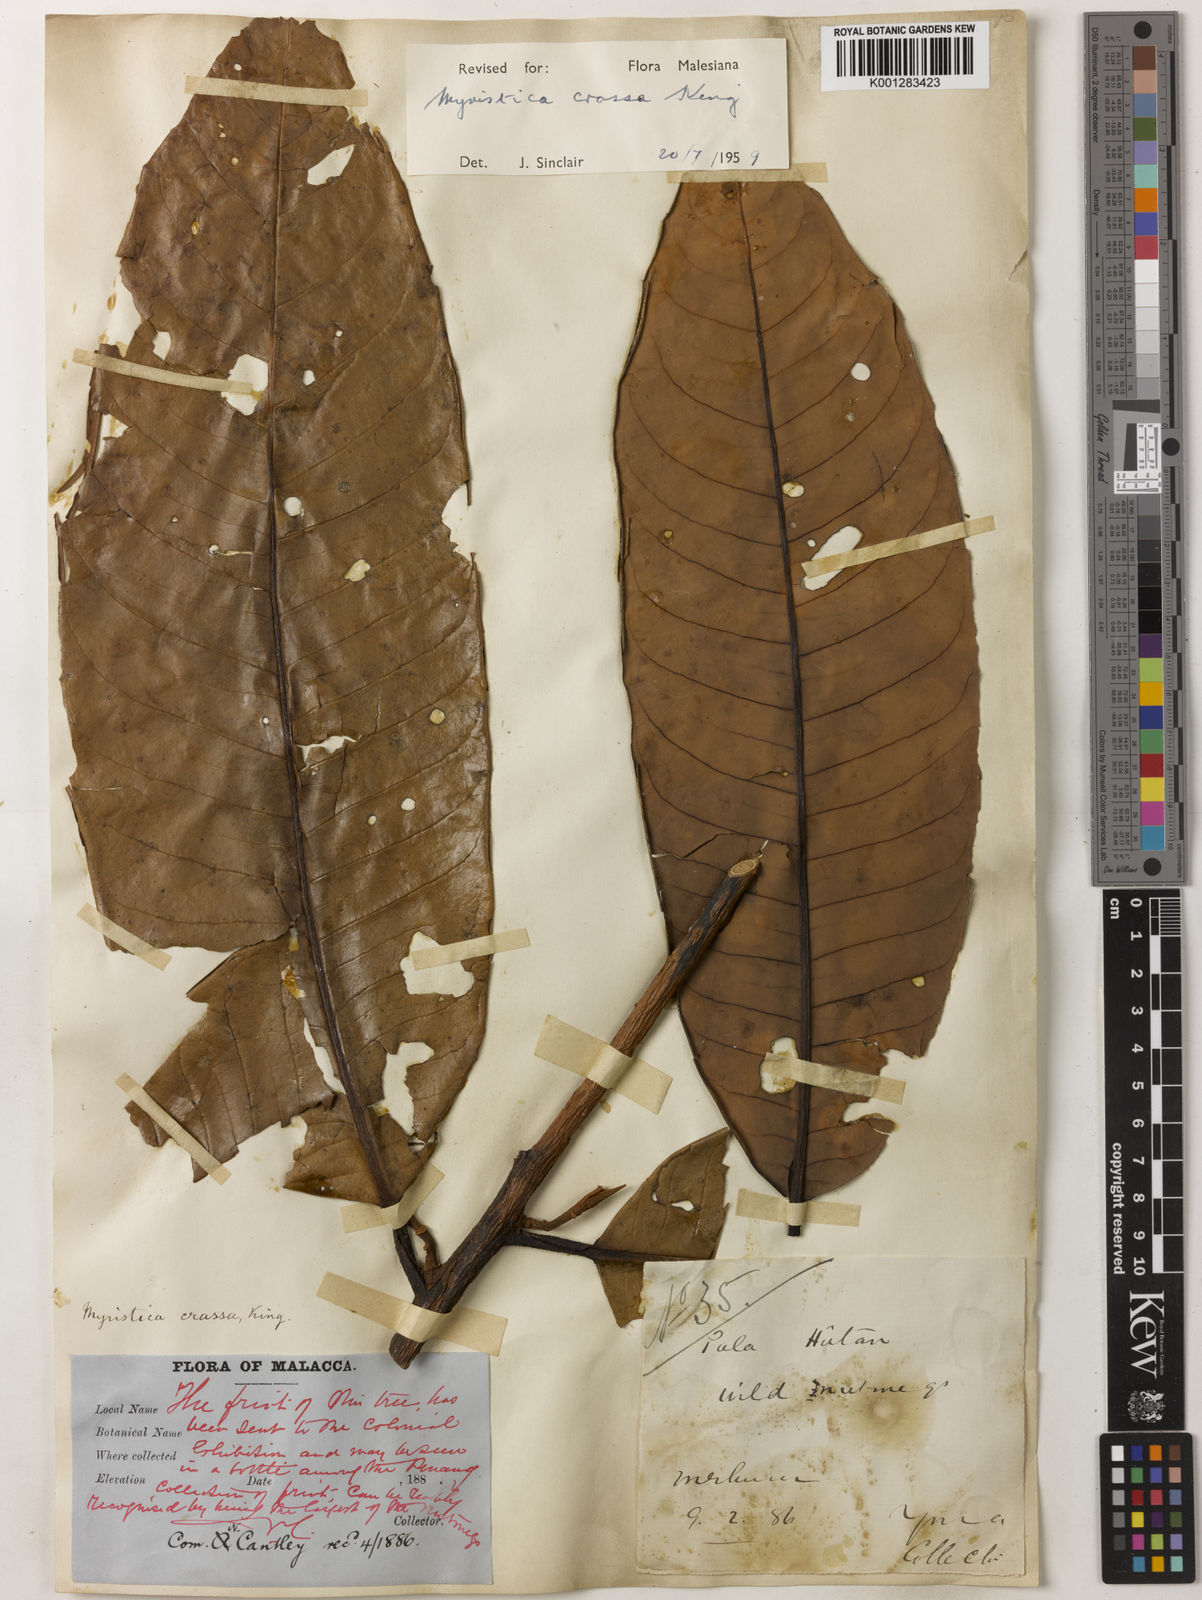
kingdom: Plantae
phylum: Tracheophyta
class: Magnoliopsida
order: Magnoliales
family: Myristicaceae
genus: Myristica
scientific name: Myristica crassa
